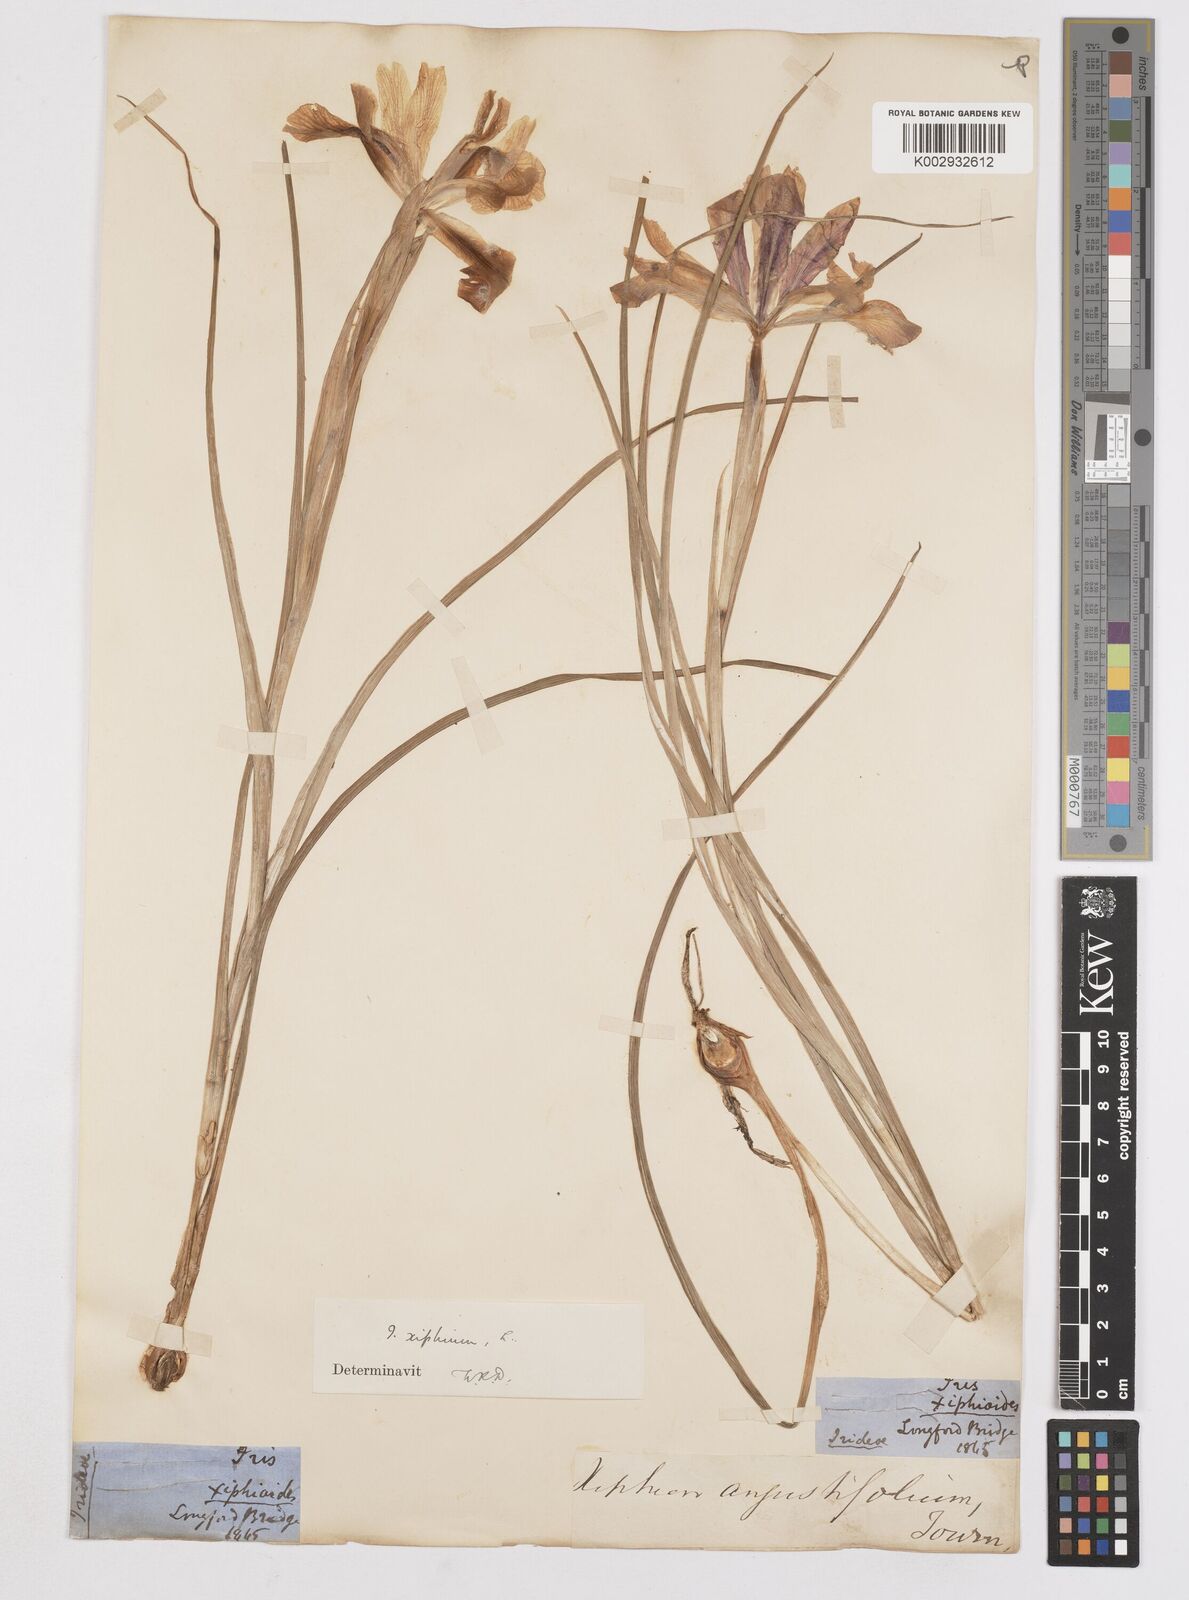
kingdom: Plantae
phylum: Tracheophyta
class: Liliopsida
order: Asparagales
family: Iridaceae
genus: Iris
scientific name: Iris xiphium
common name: Spanish iris
